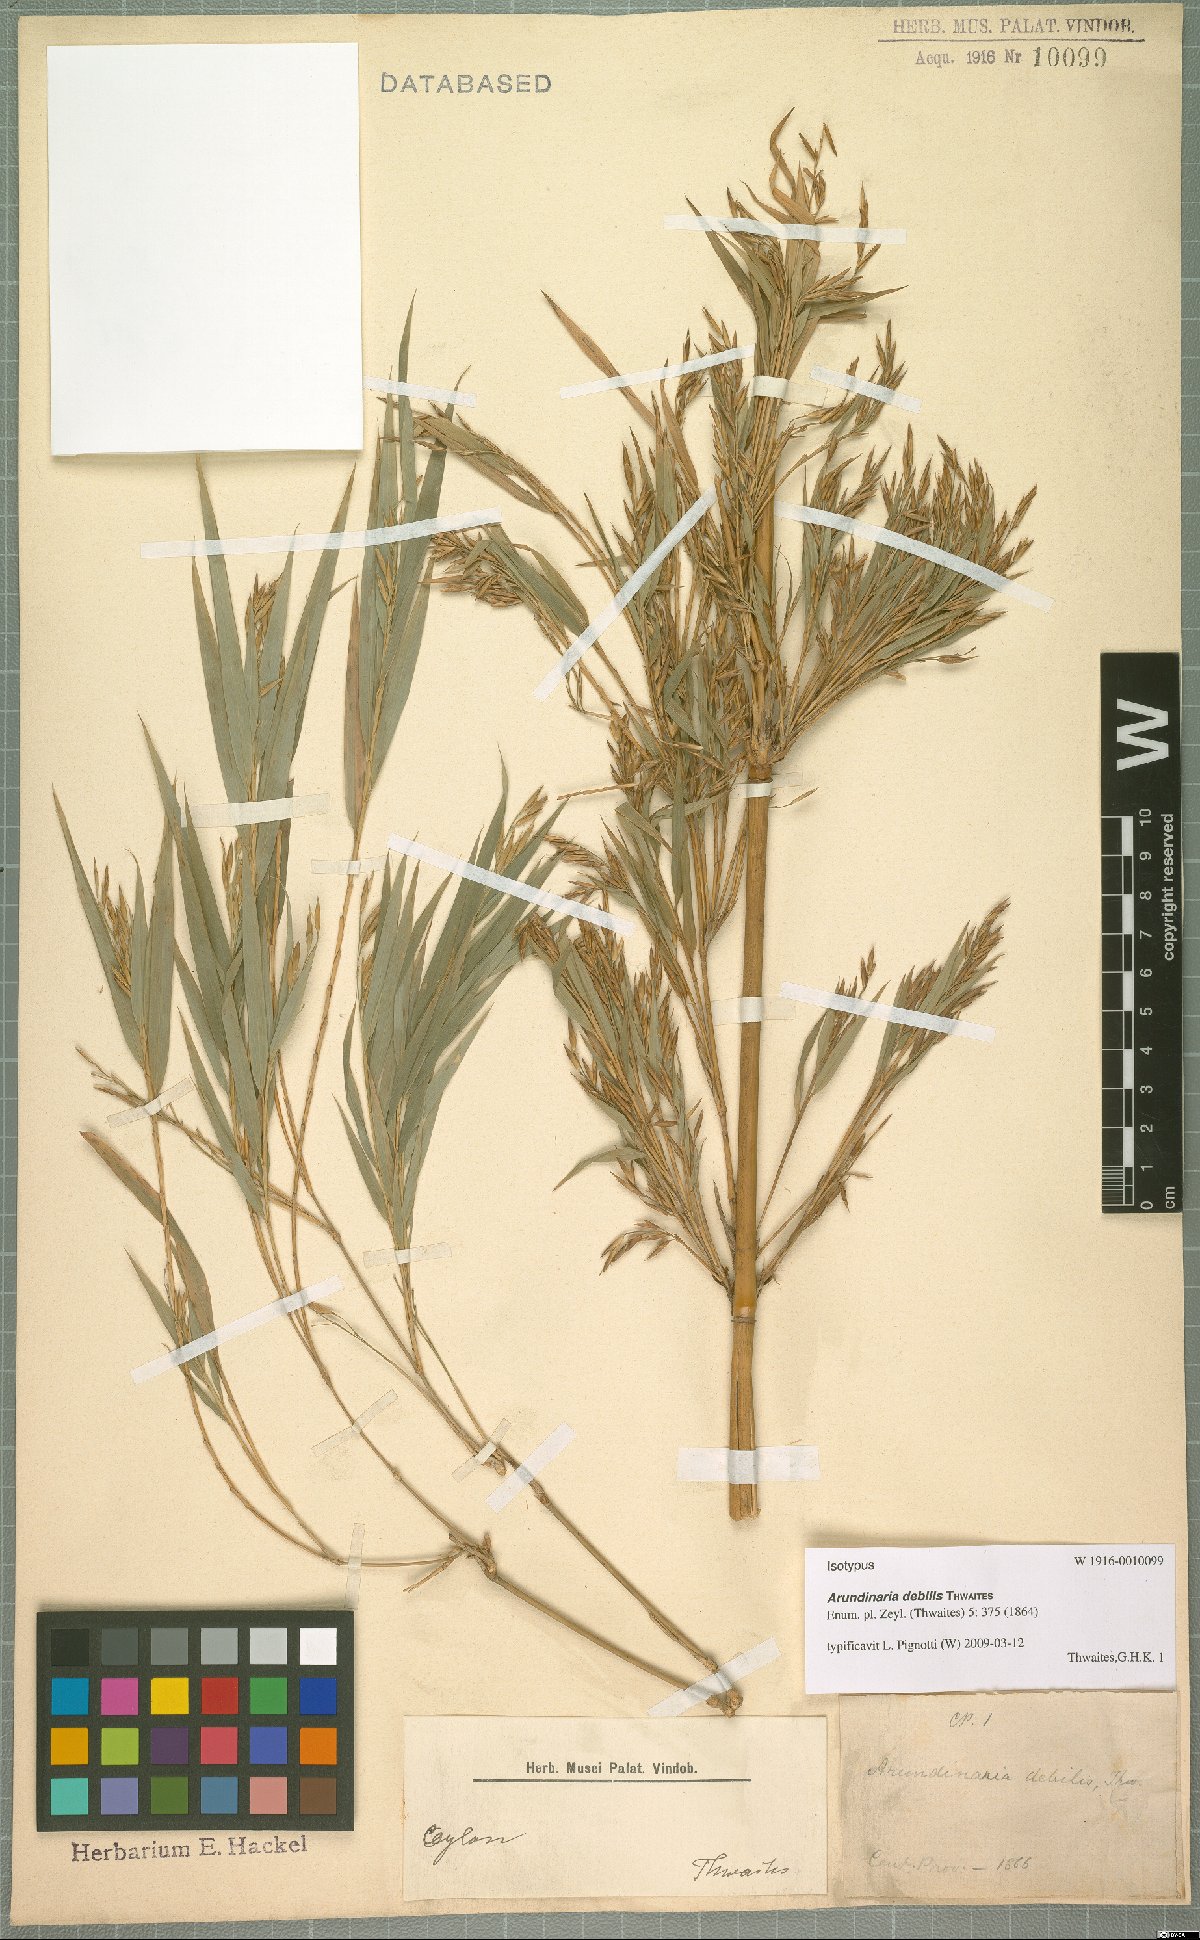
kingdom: Plantae
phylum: Tracheophyta
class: Liliopsida
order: Poales
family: Poaceae
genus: Kuruna
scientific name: Kuruna debilis
